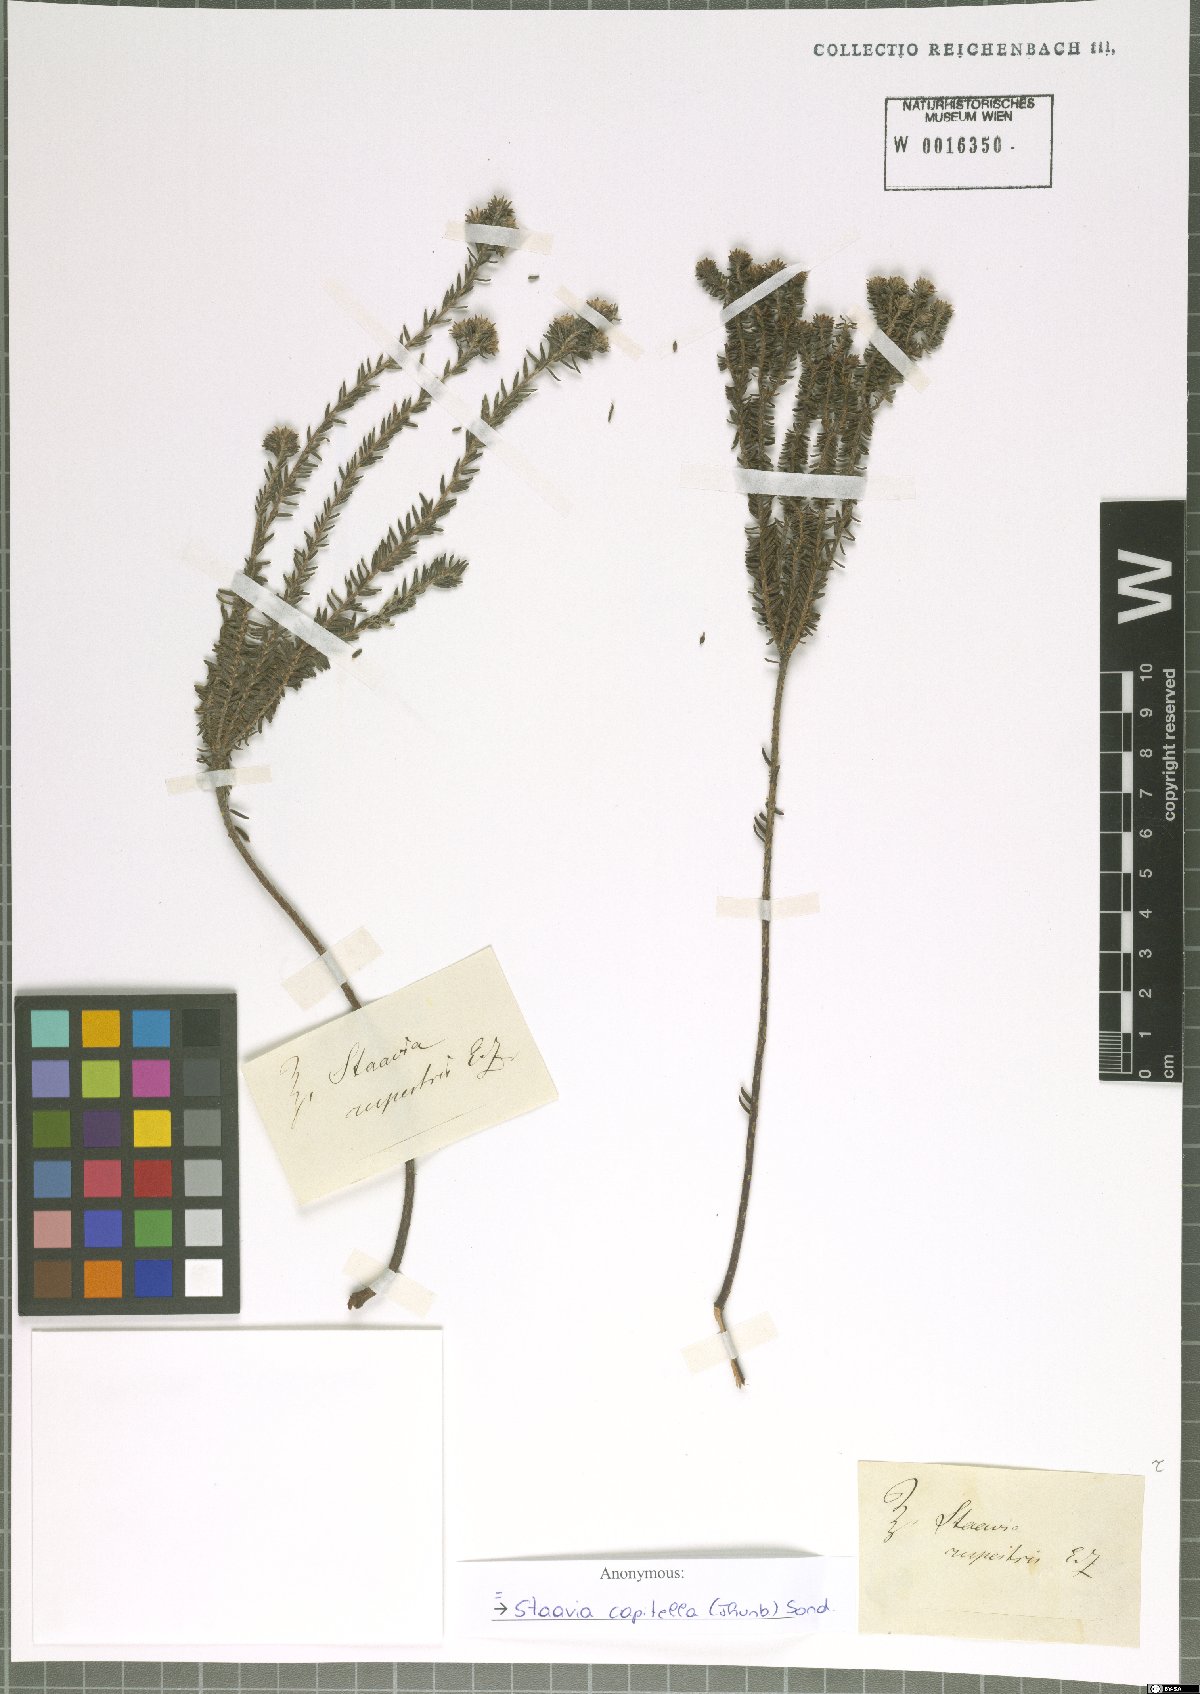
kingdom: Plantae
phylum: Tracheophyta
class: Magnoliopsida
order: Bruniales
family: Bruniaceae
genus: Staavia
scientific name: Staavia capitella
